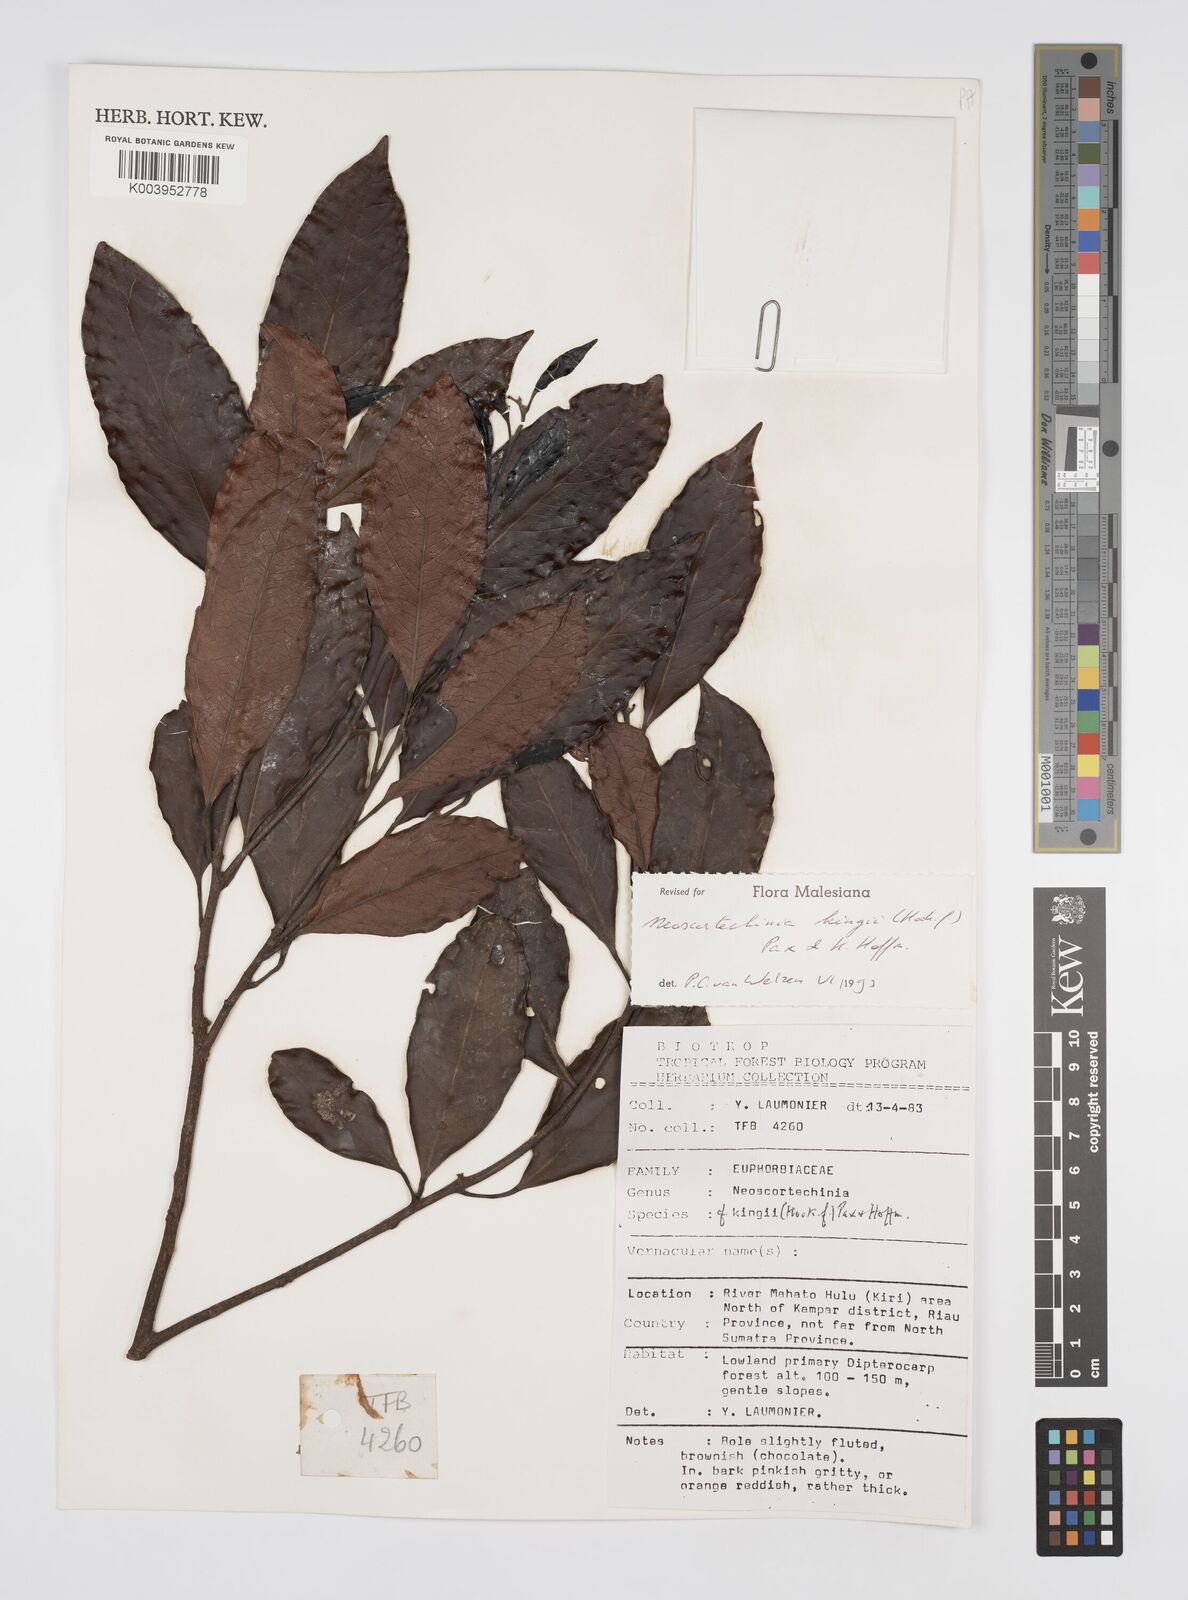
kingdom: Plantae
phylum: Tracheophyta
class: Magnoliopsida
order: Malpighiales
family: Euphorbiaceae
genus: Neoscortechinia
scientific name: Neoscortechinia kingii
